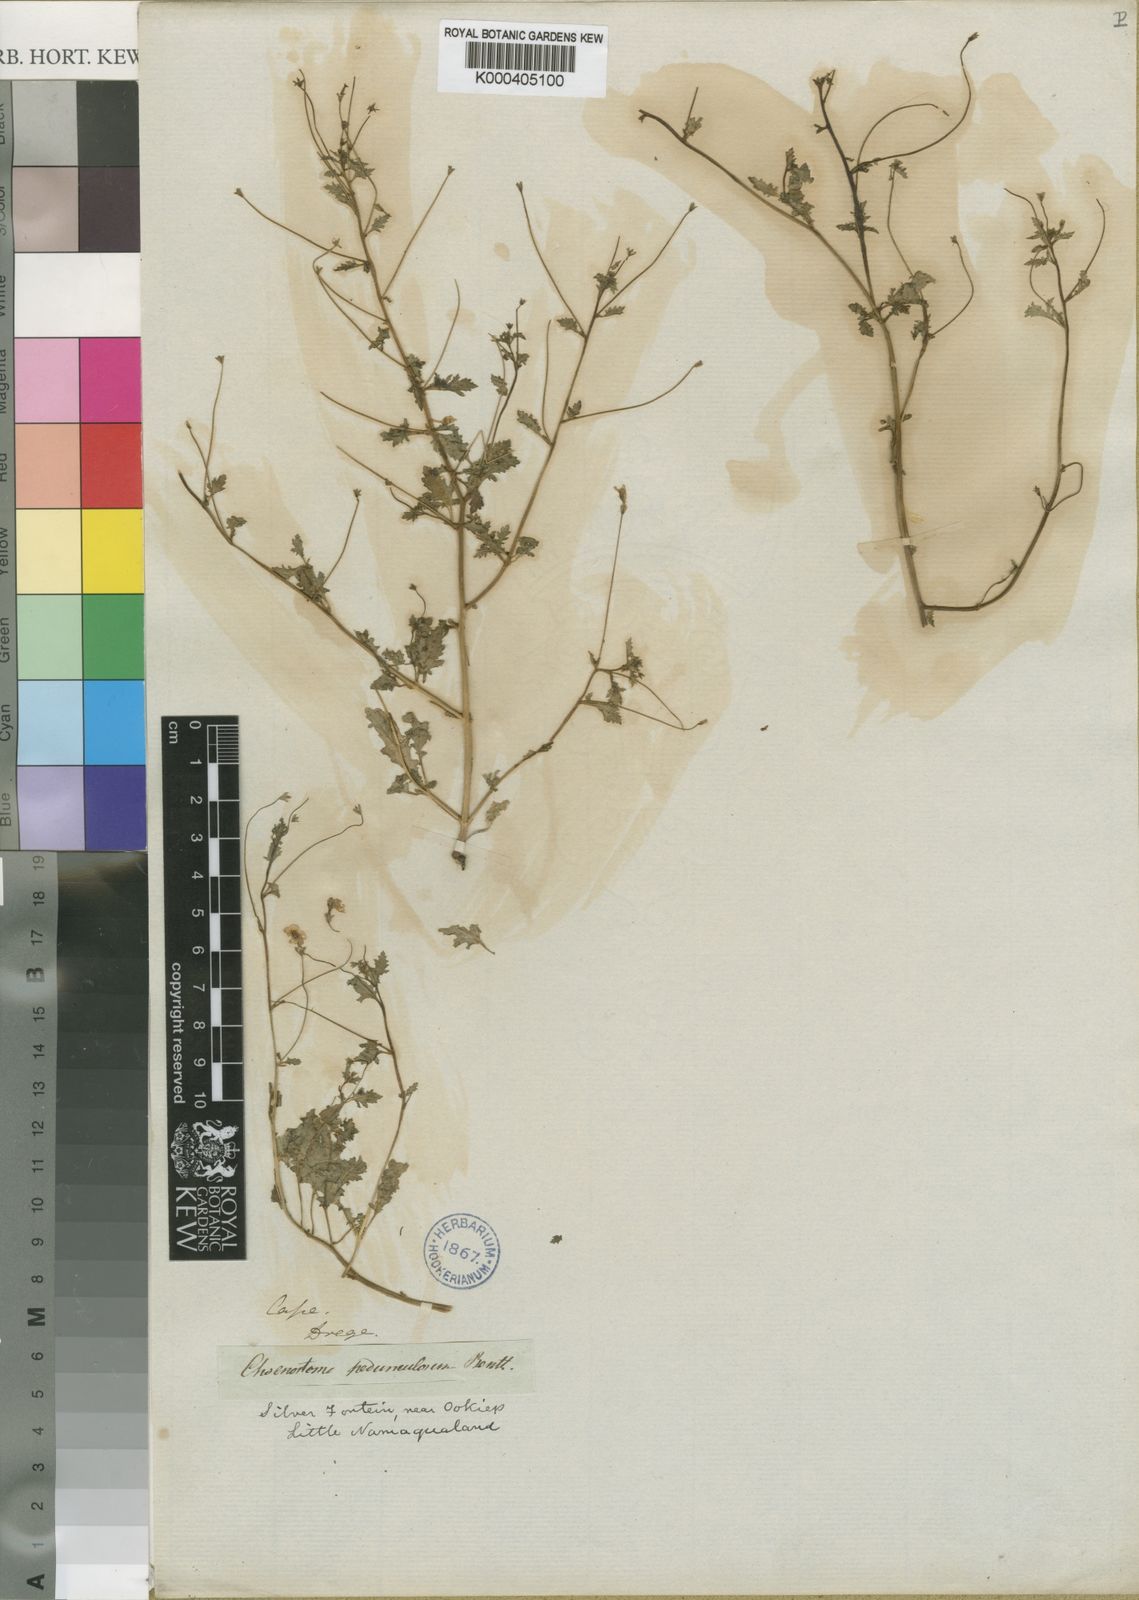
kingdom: Plantae
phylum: Tracheophyta
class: Magnoliopsida
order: Lamiales
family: Scrophulariaceae
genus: Jamesbrittenia
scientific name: Jamesbrittenia pedunculosa
